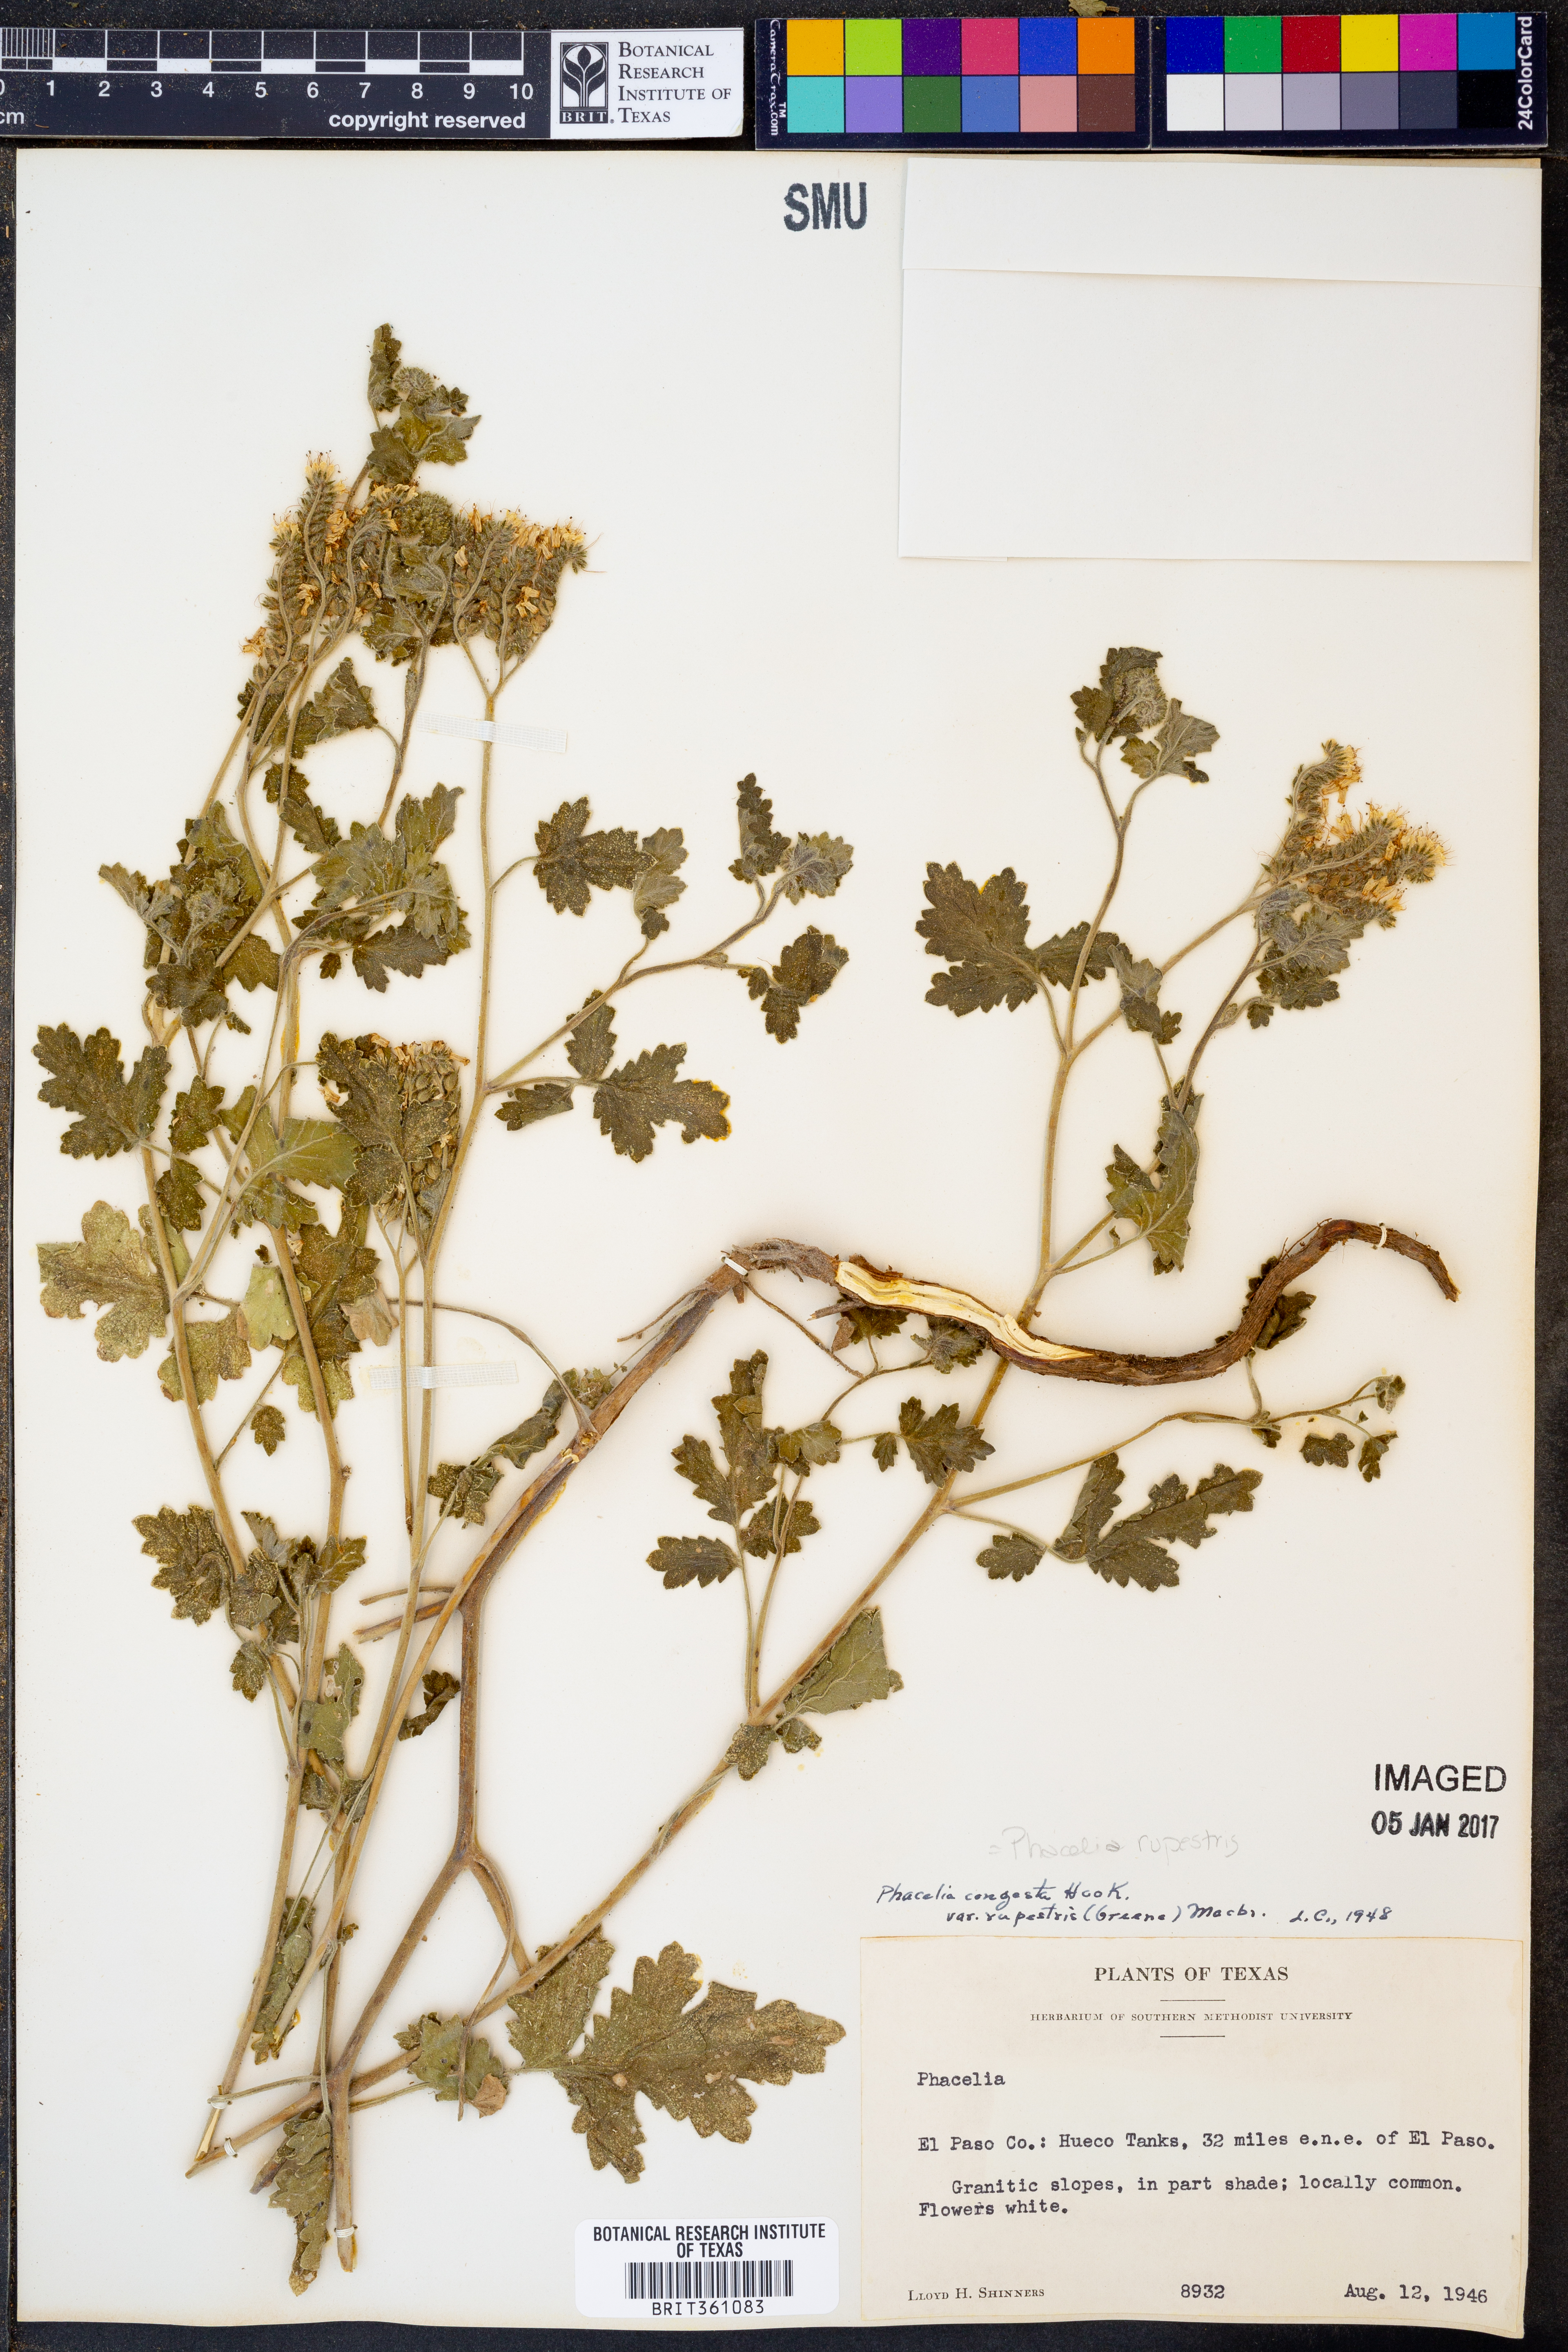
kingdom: Plantae
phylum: Tracheophyta
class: Magnoliopsida
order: Boraginales
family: Hydrophyllaceae
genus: Phacelia
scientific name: Phacelia rupestris
